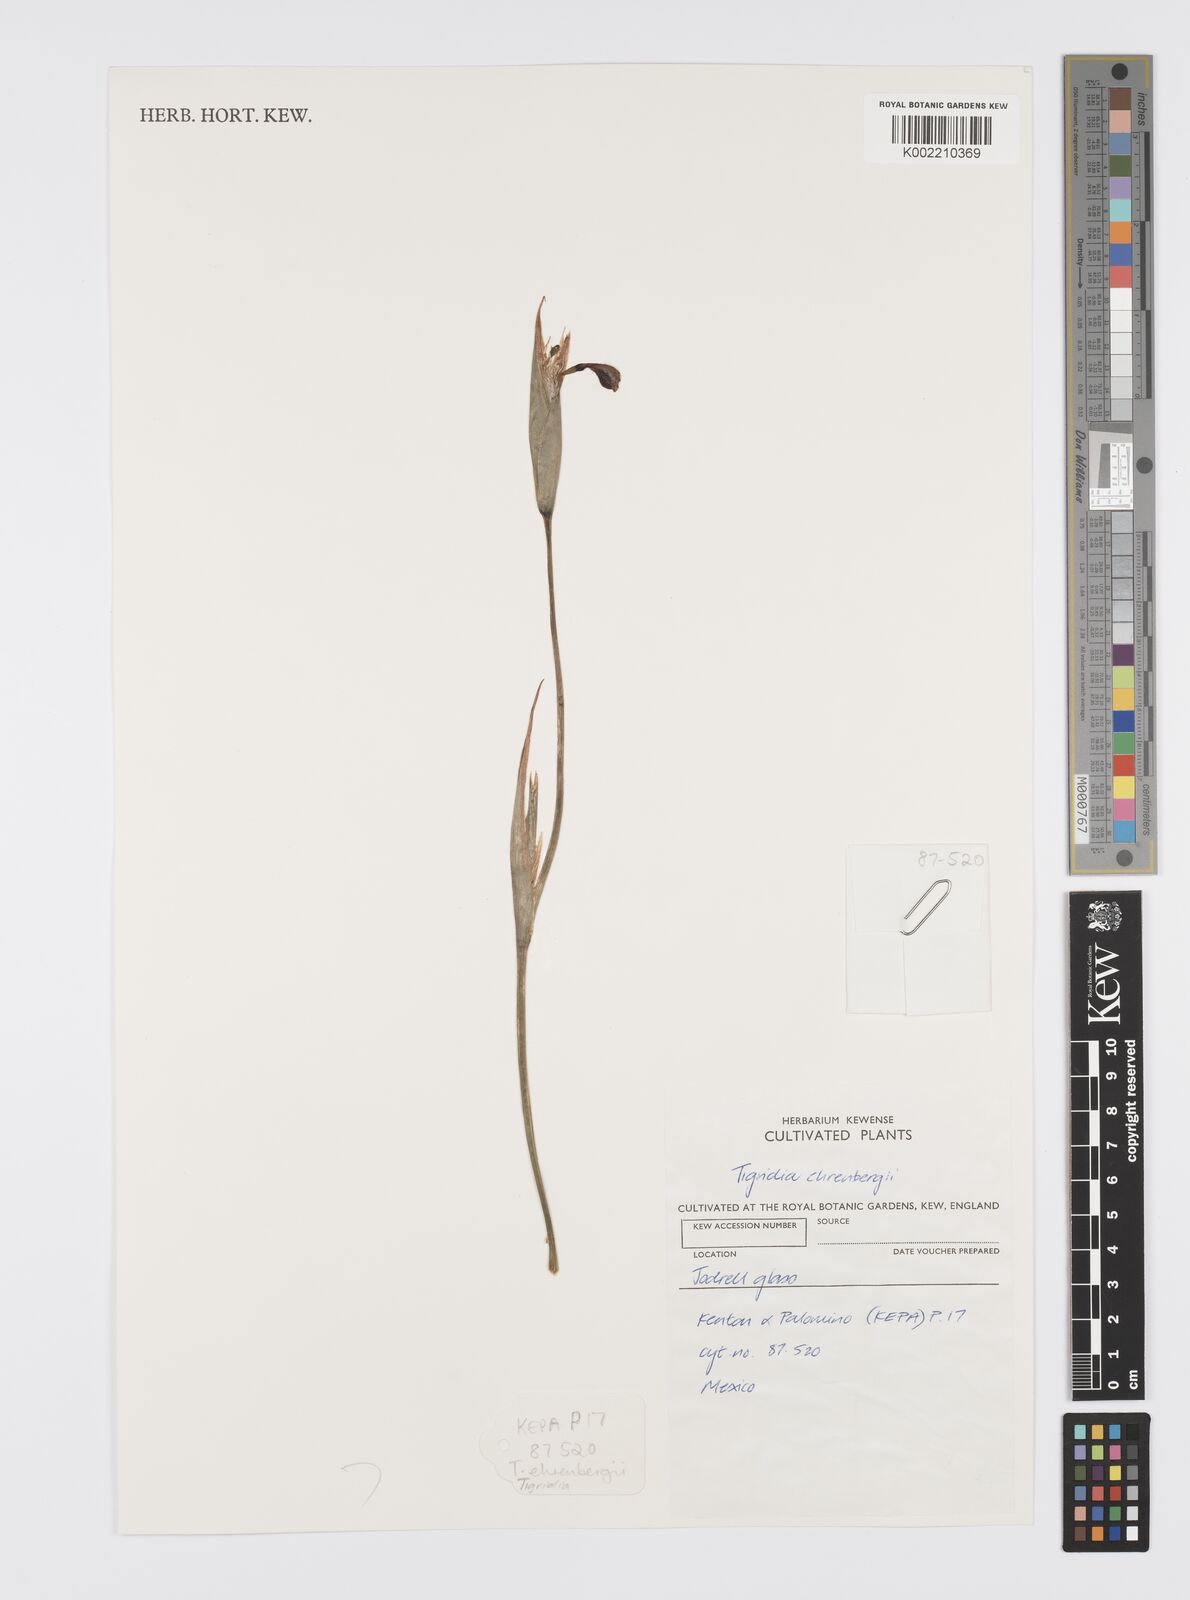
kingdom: Plantae
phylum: Tracheophyta
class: Liliopsida
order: Asparagales
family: Iridaceae
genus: Tigridia
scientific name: Tigridia ehrenbergii
